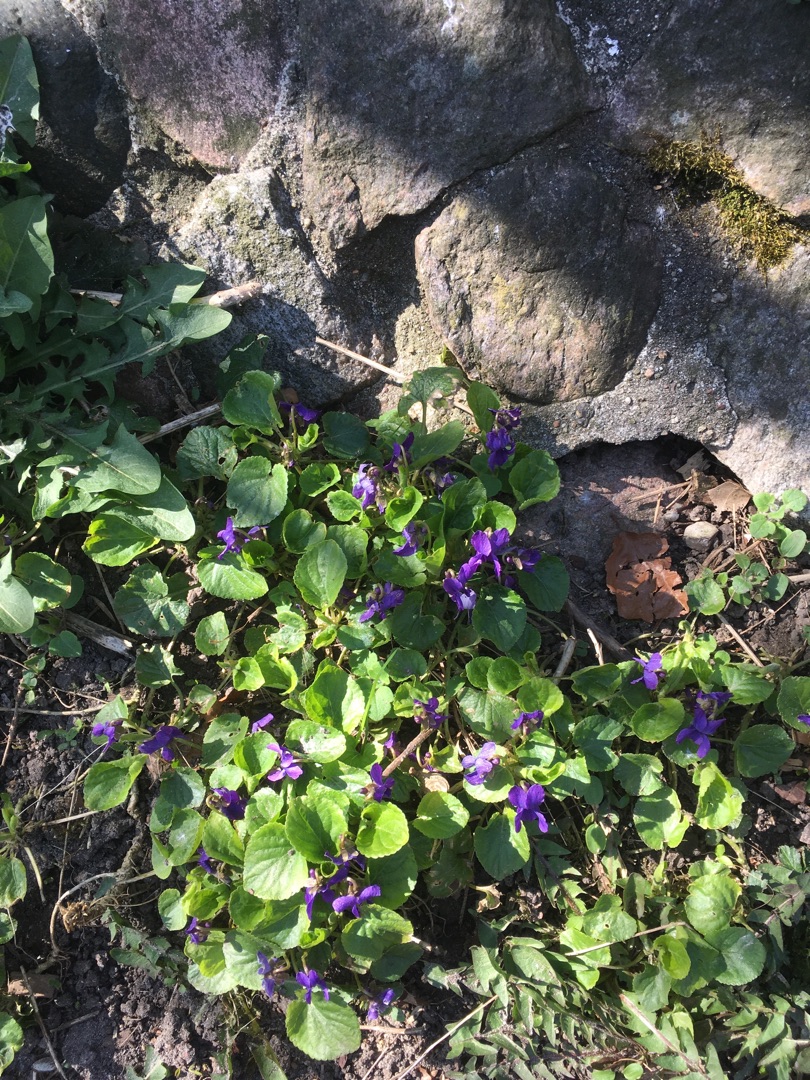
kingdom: Plantae
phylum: Tracheophyta
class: Magnoliopsida
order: Malpighiales
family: Violaceae
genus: Viola
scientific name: Viola odorata
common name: Marts-viol
